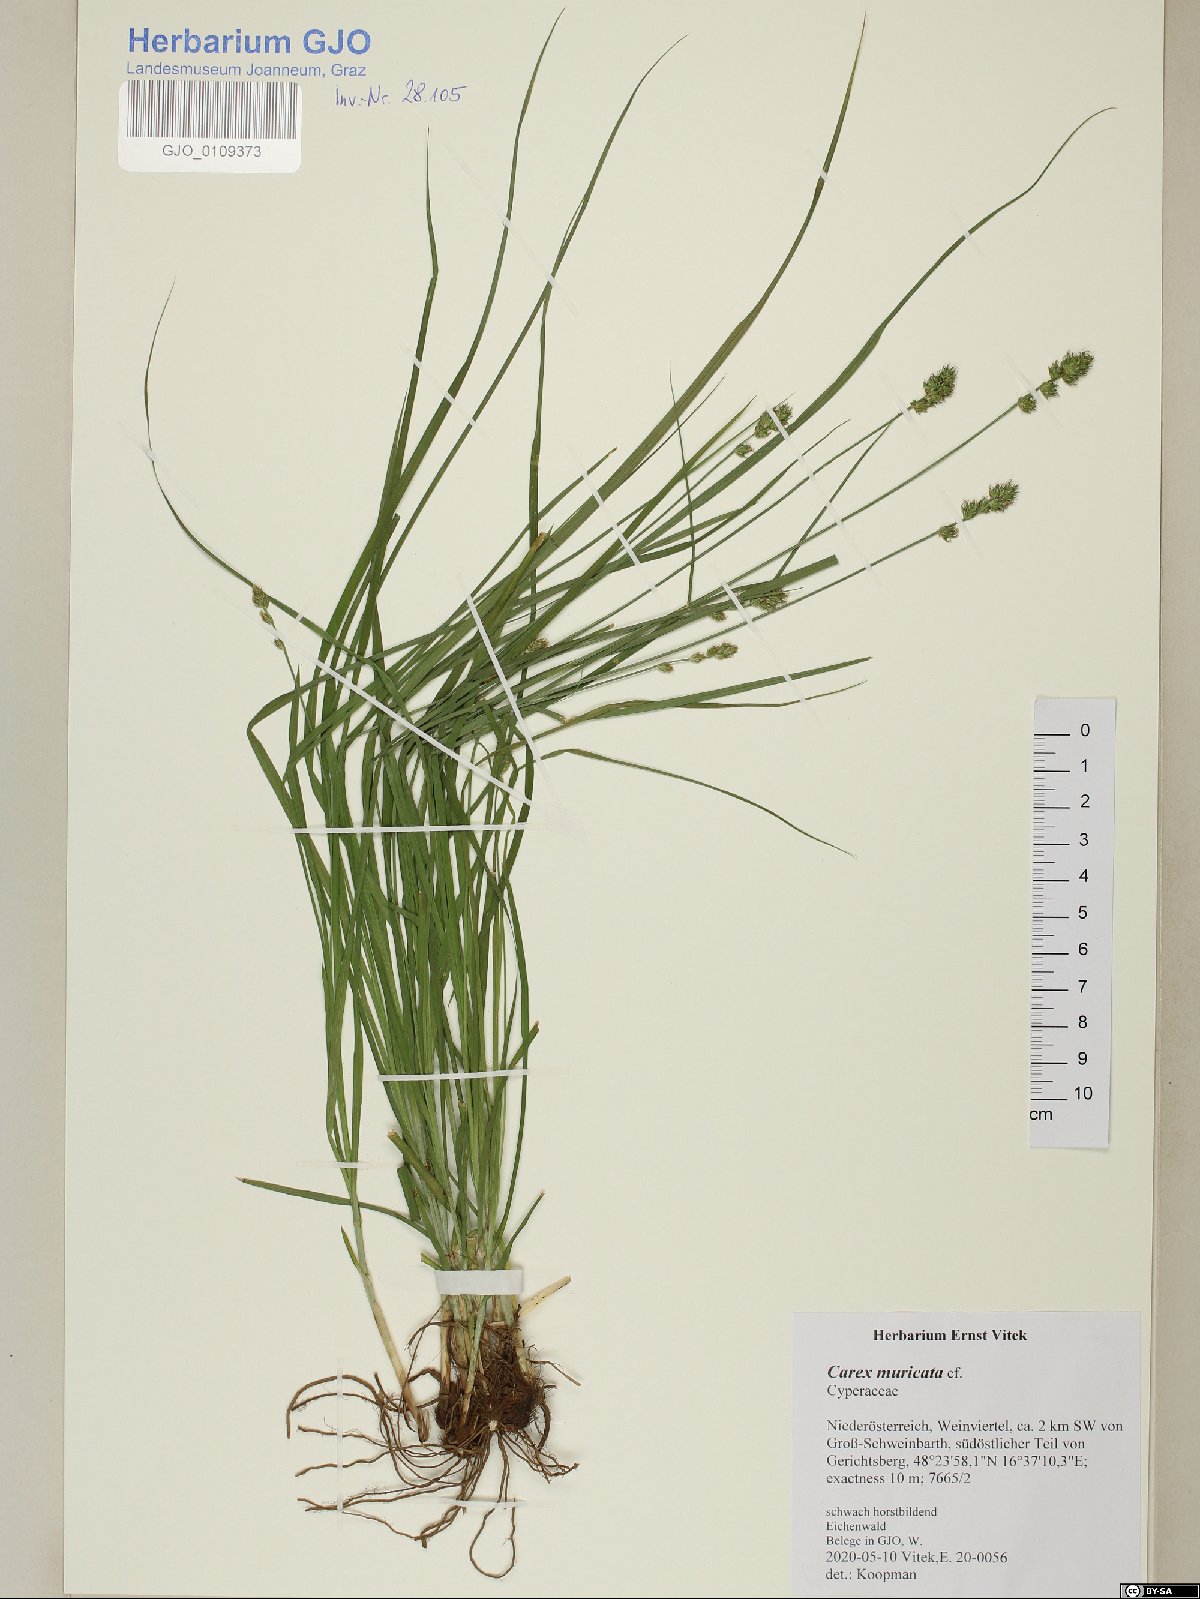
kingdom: Plantae
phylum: Tracheophyta
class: Liliopsida
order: Poales
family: Cyperaceae
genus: Carex
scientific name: Carex muricata
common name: Rough sedge
